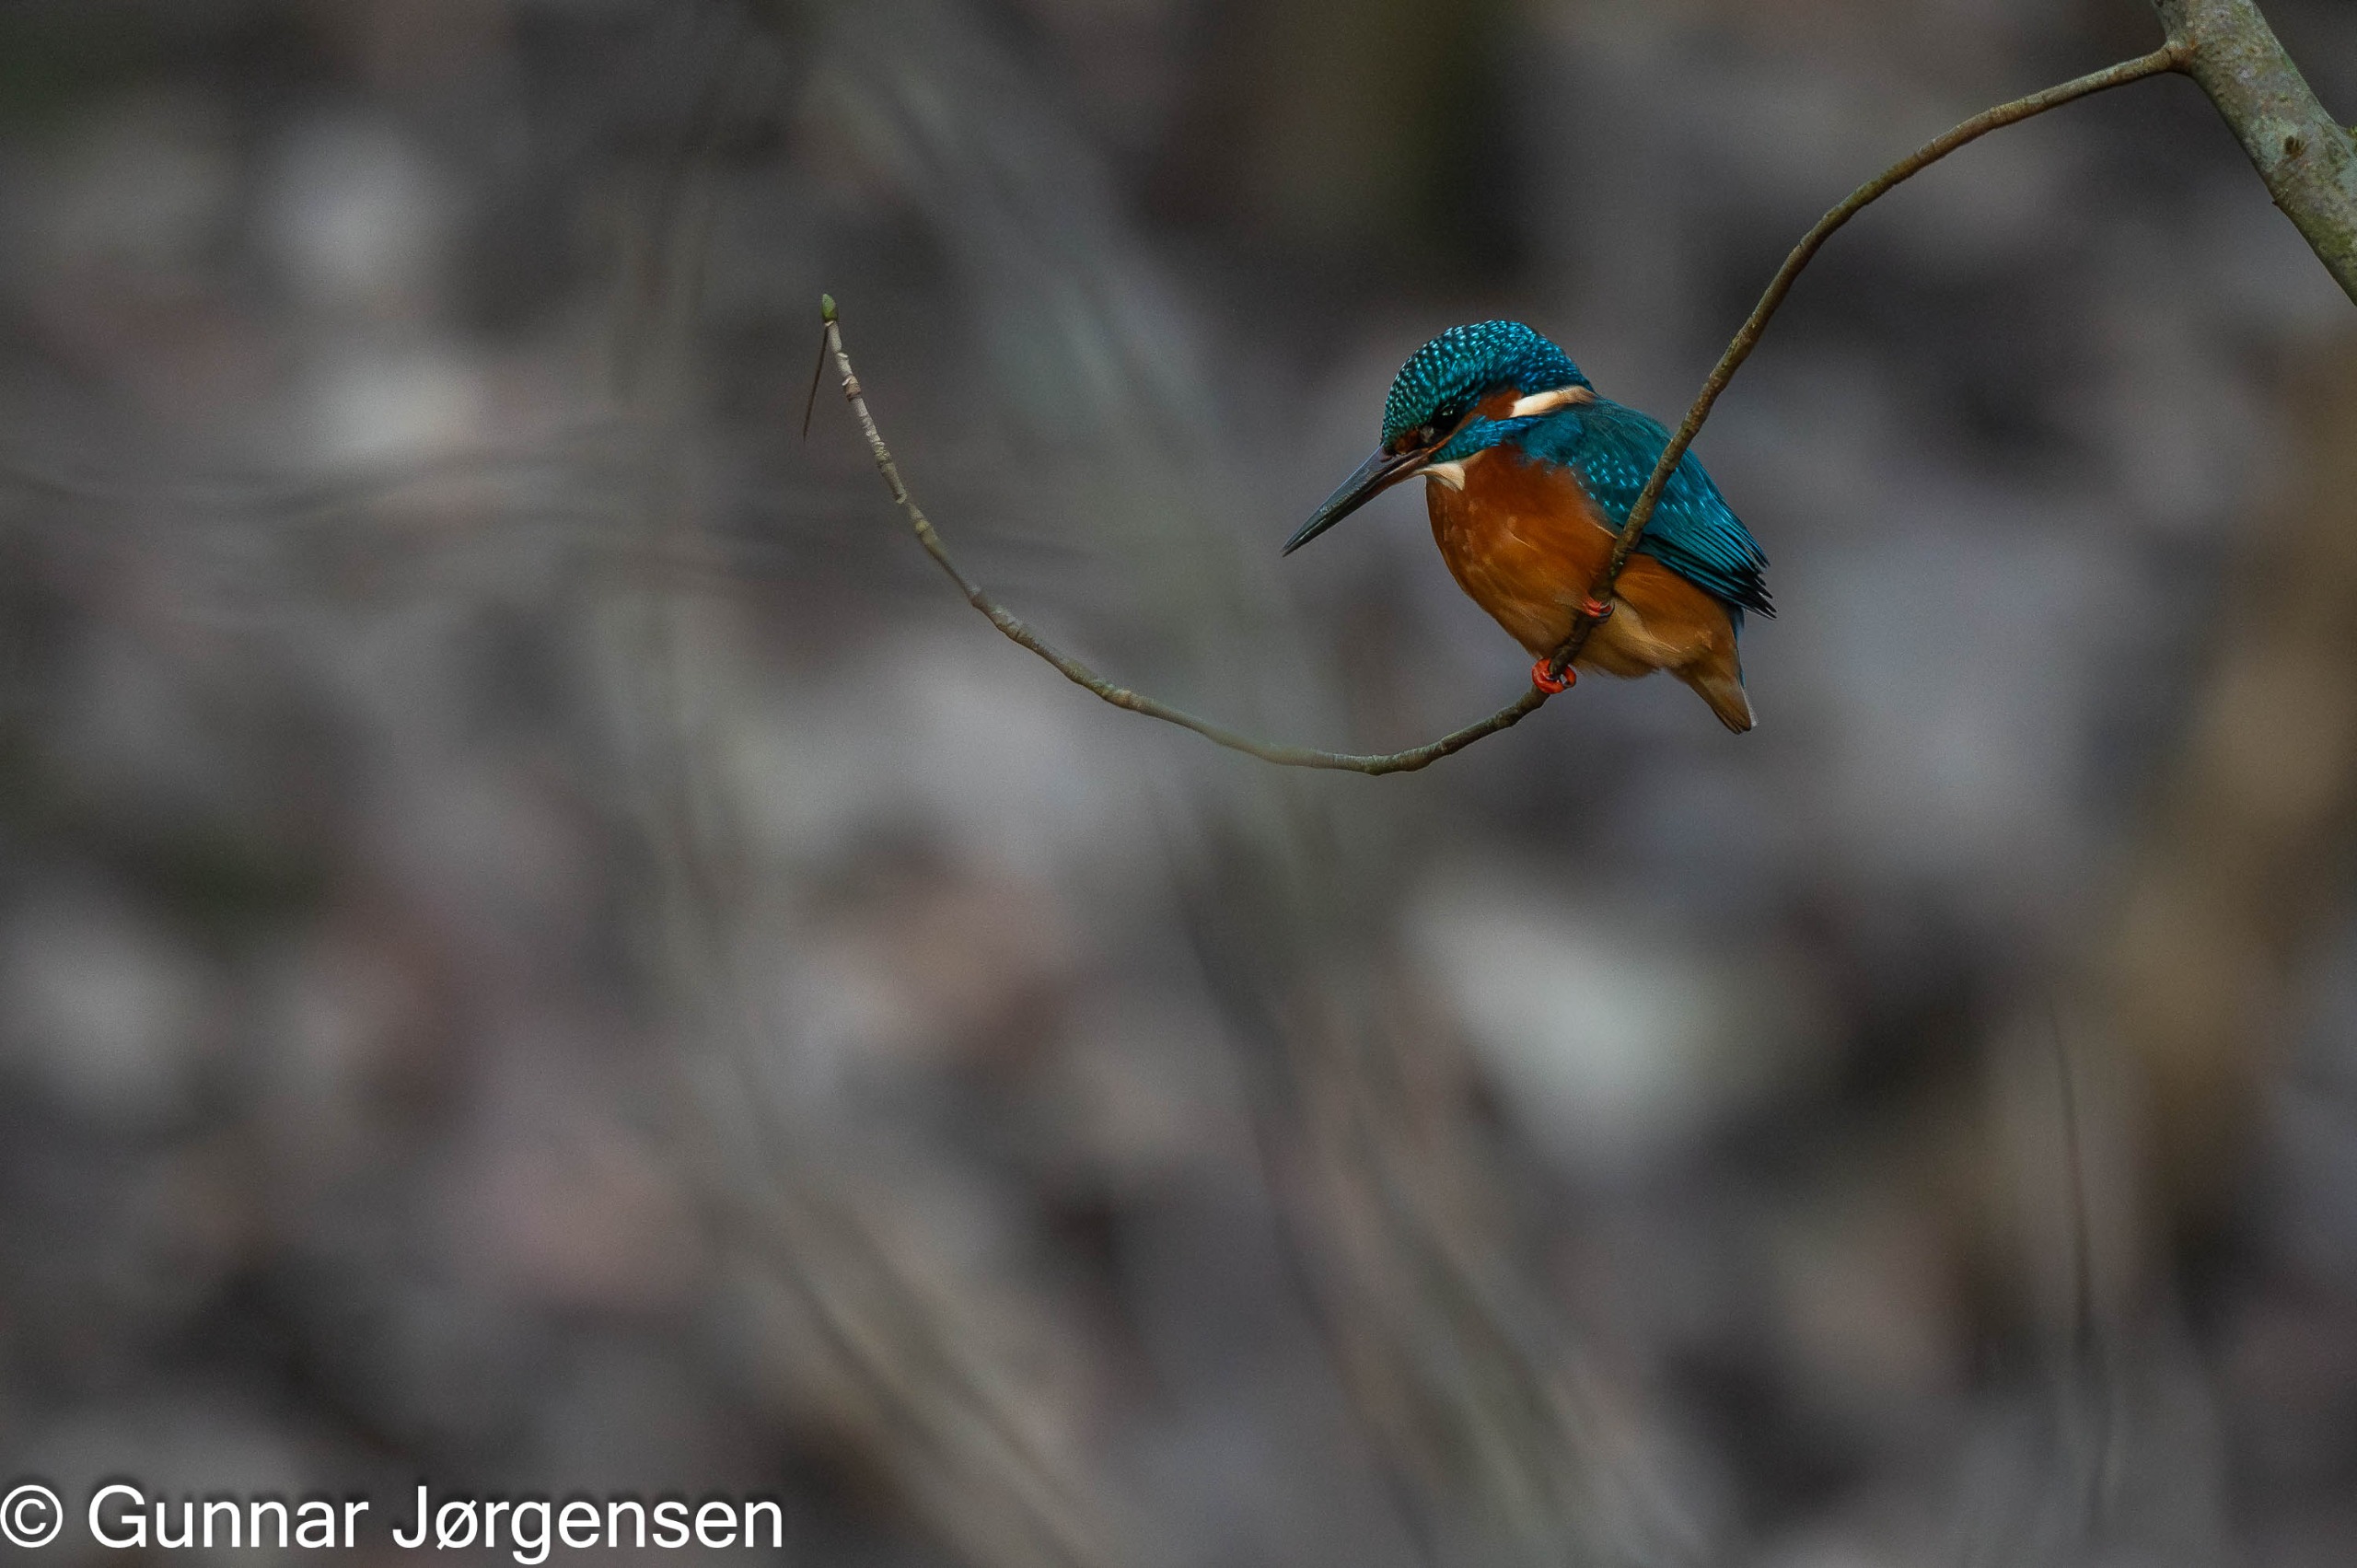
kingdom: Animalia
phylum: Chordata
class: Aves
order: Coraciiformes
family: Alcedinidae
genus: Alcedo
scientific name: Alcedo atthis
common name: Isfugl
